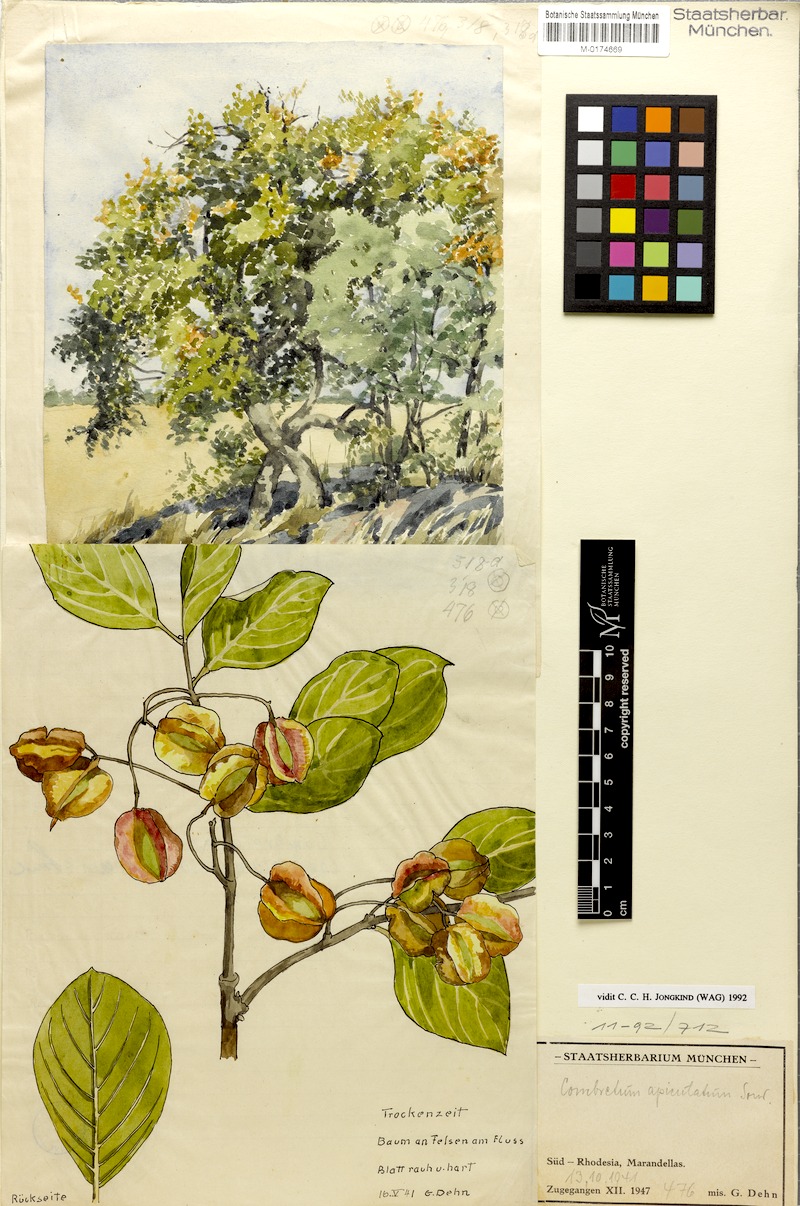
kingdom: Plantae
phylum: Tracheophyta
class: Magnoliopsida
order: Myrtales
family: Combretaceae
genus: Combretum
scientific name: Combretum apiculatum
